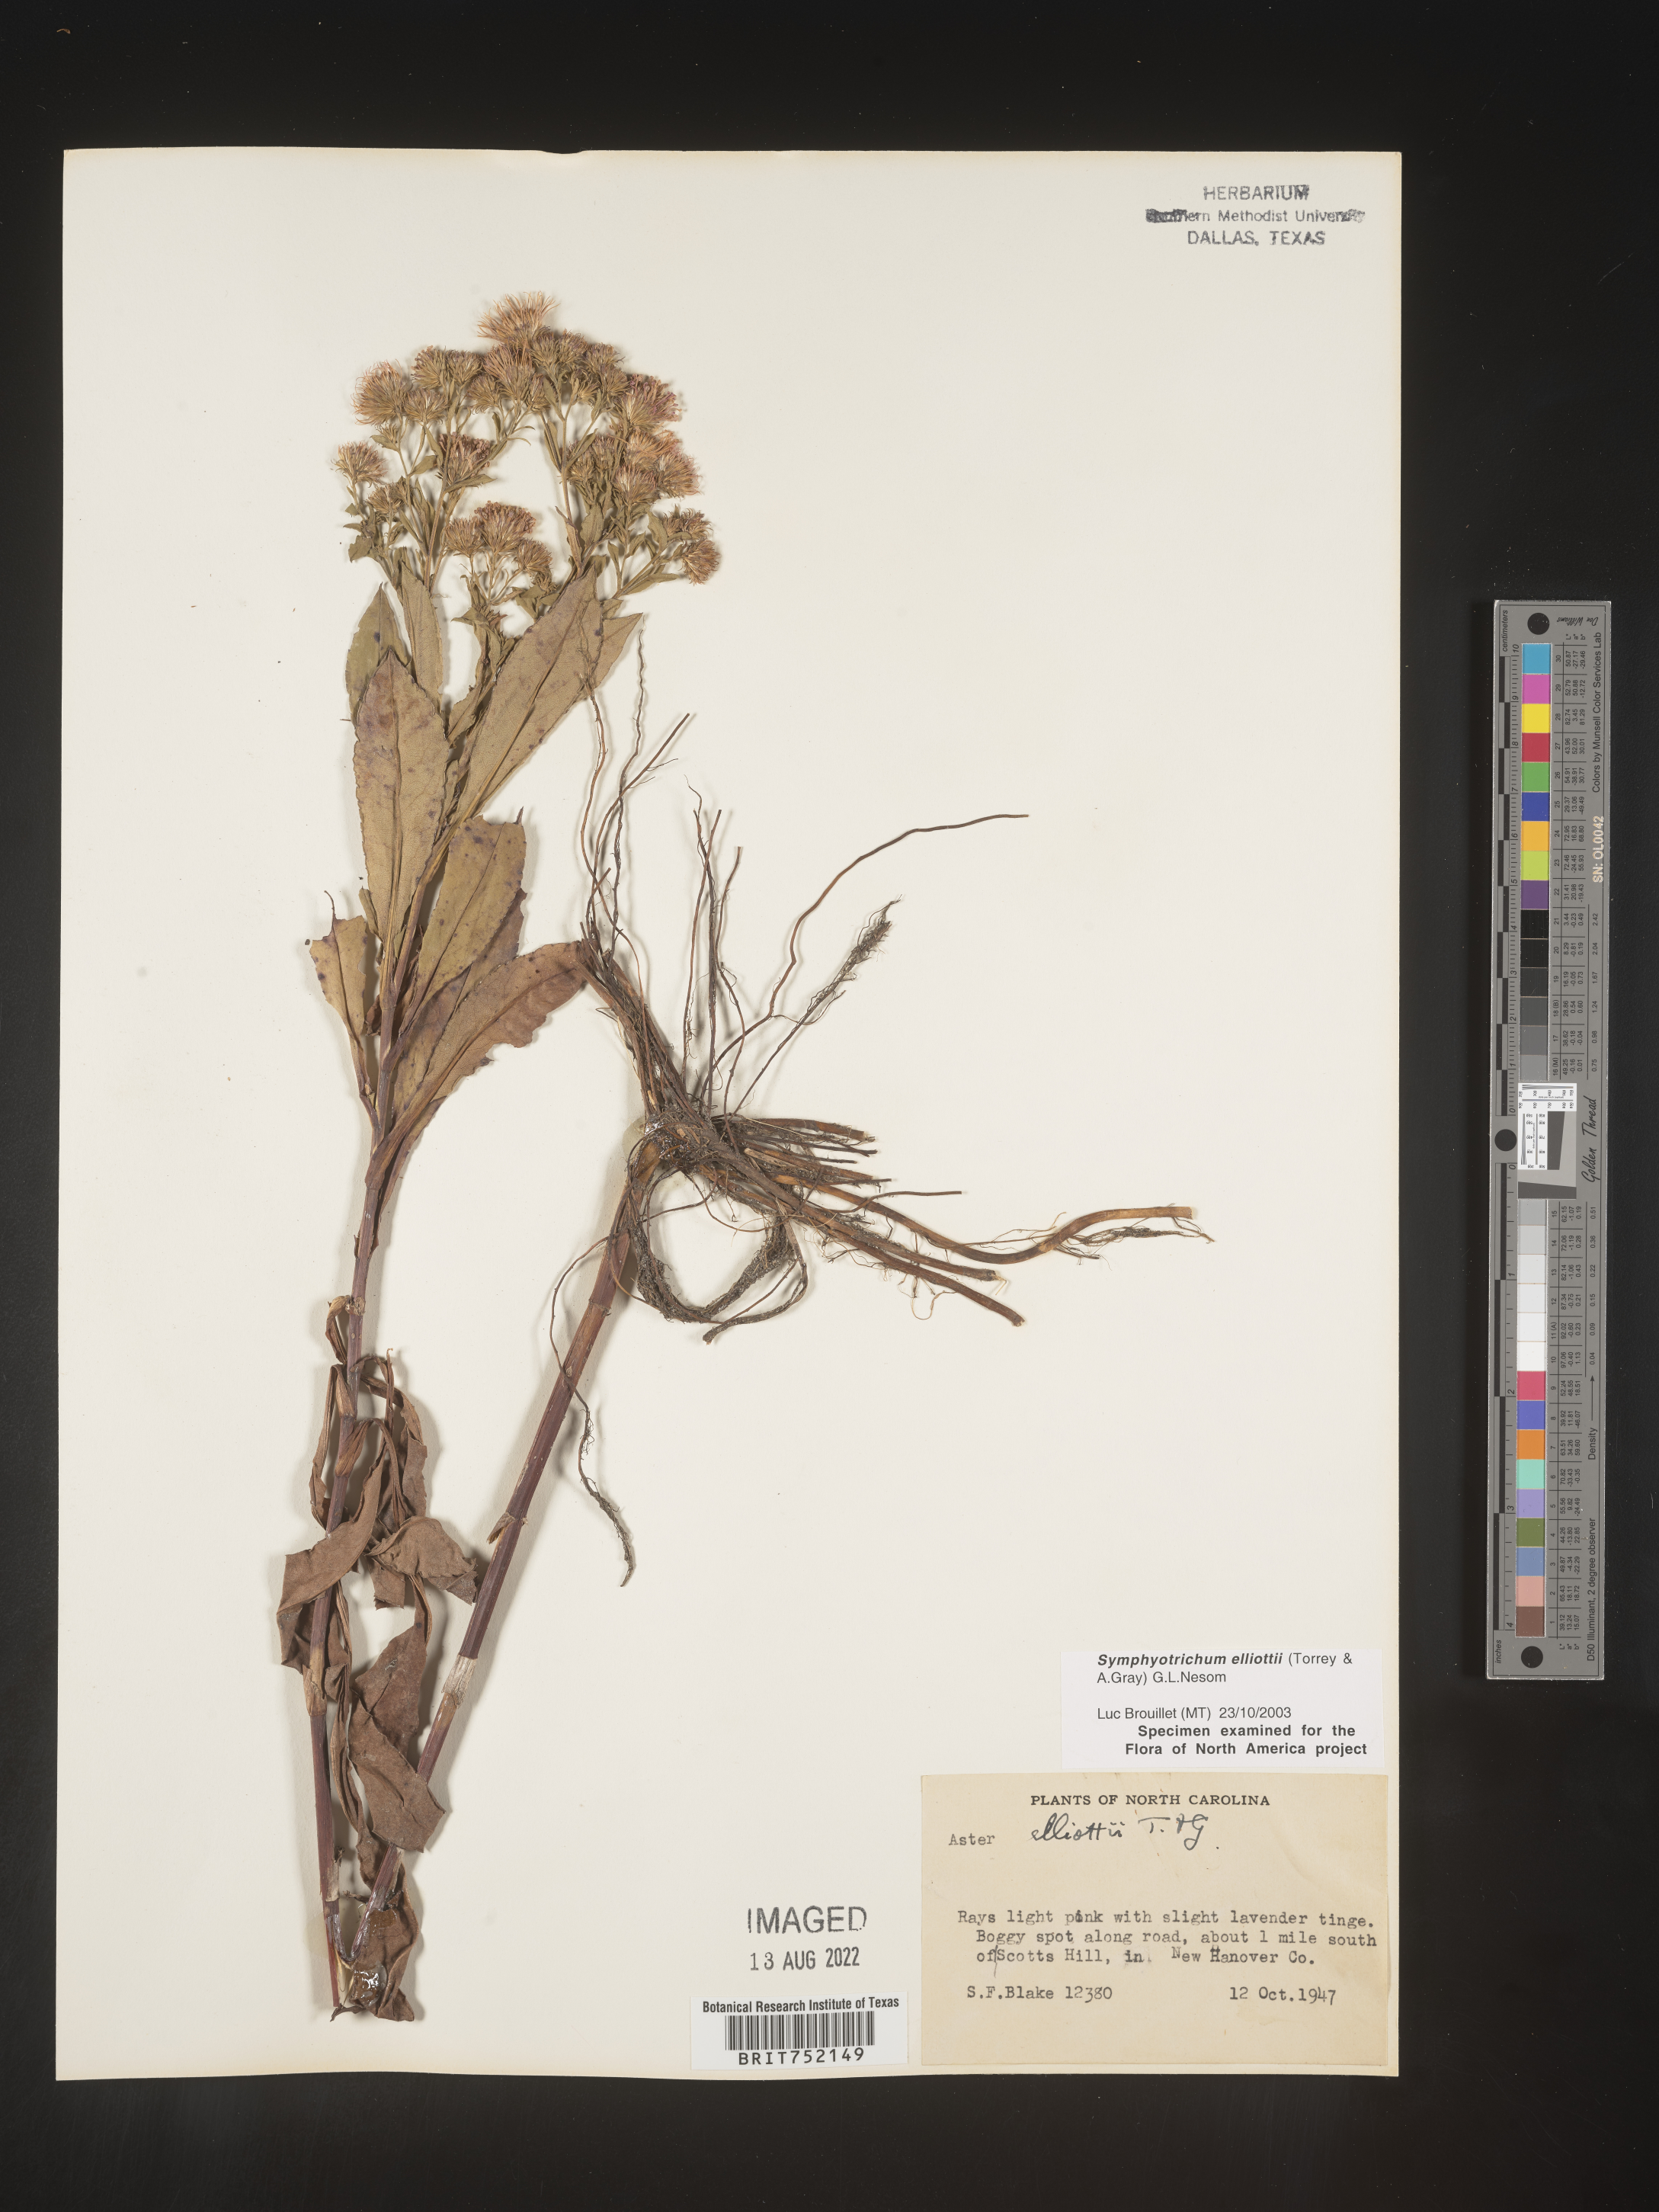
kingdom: Plantae
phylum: Tracheophyta
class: Magnoliopsida
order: Asterales
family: Asteraceae
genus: Symphyotrichum
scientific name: Symphyotrichum elliottii
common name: Southern swamp aster
